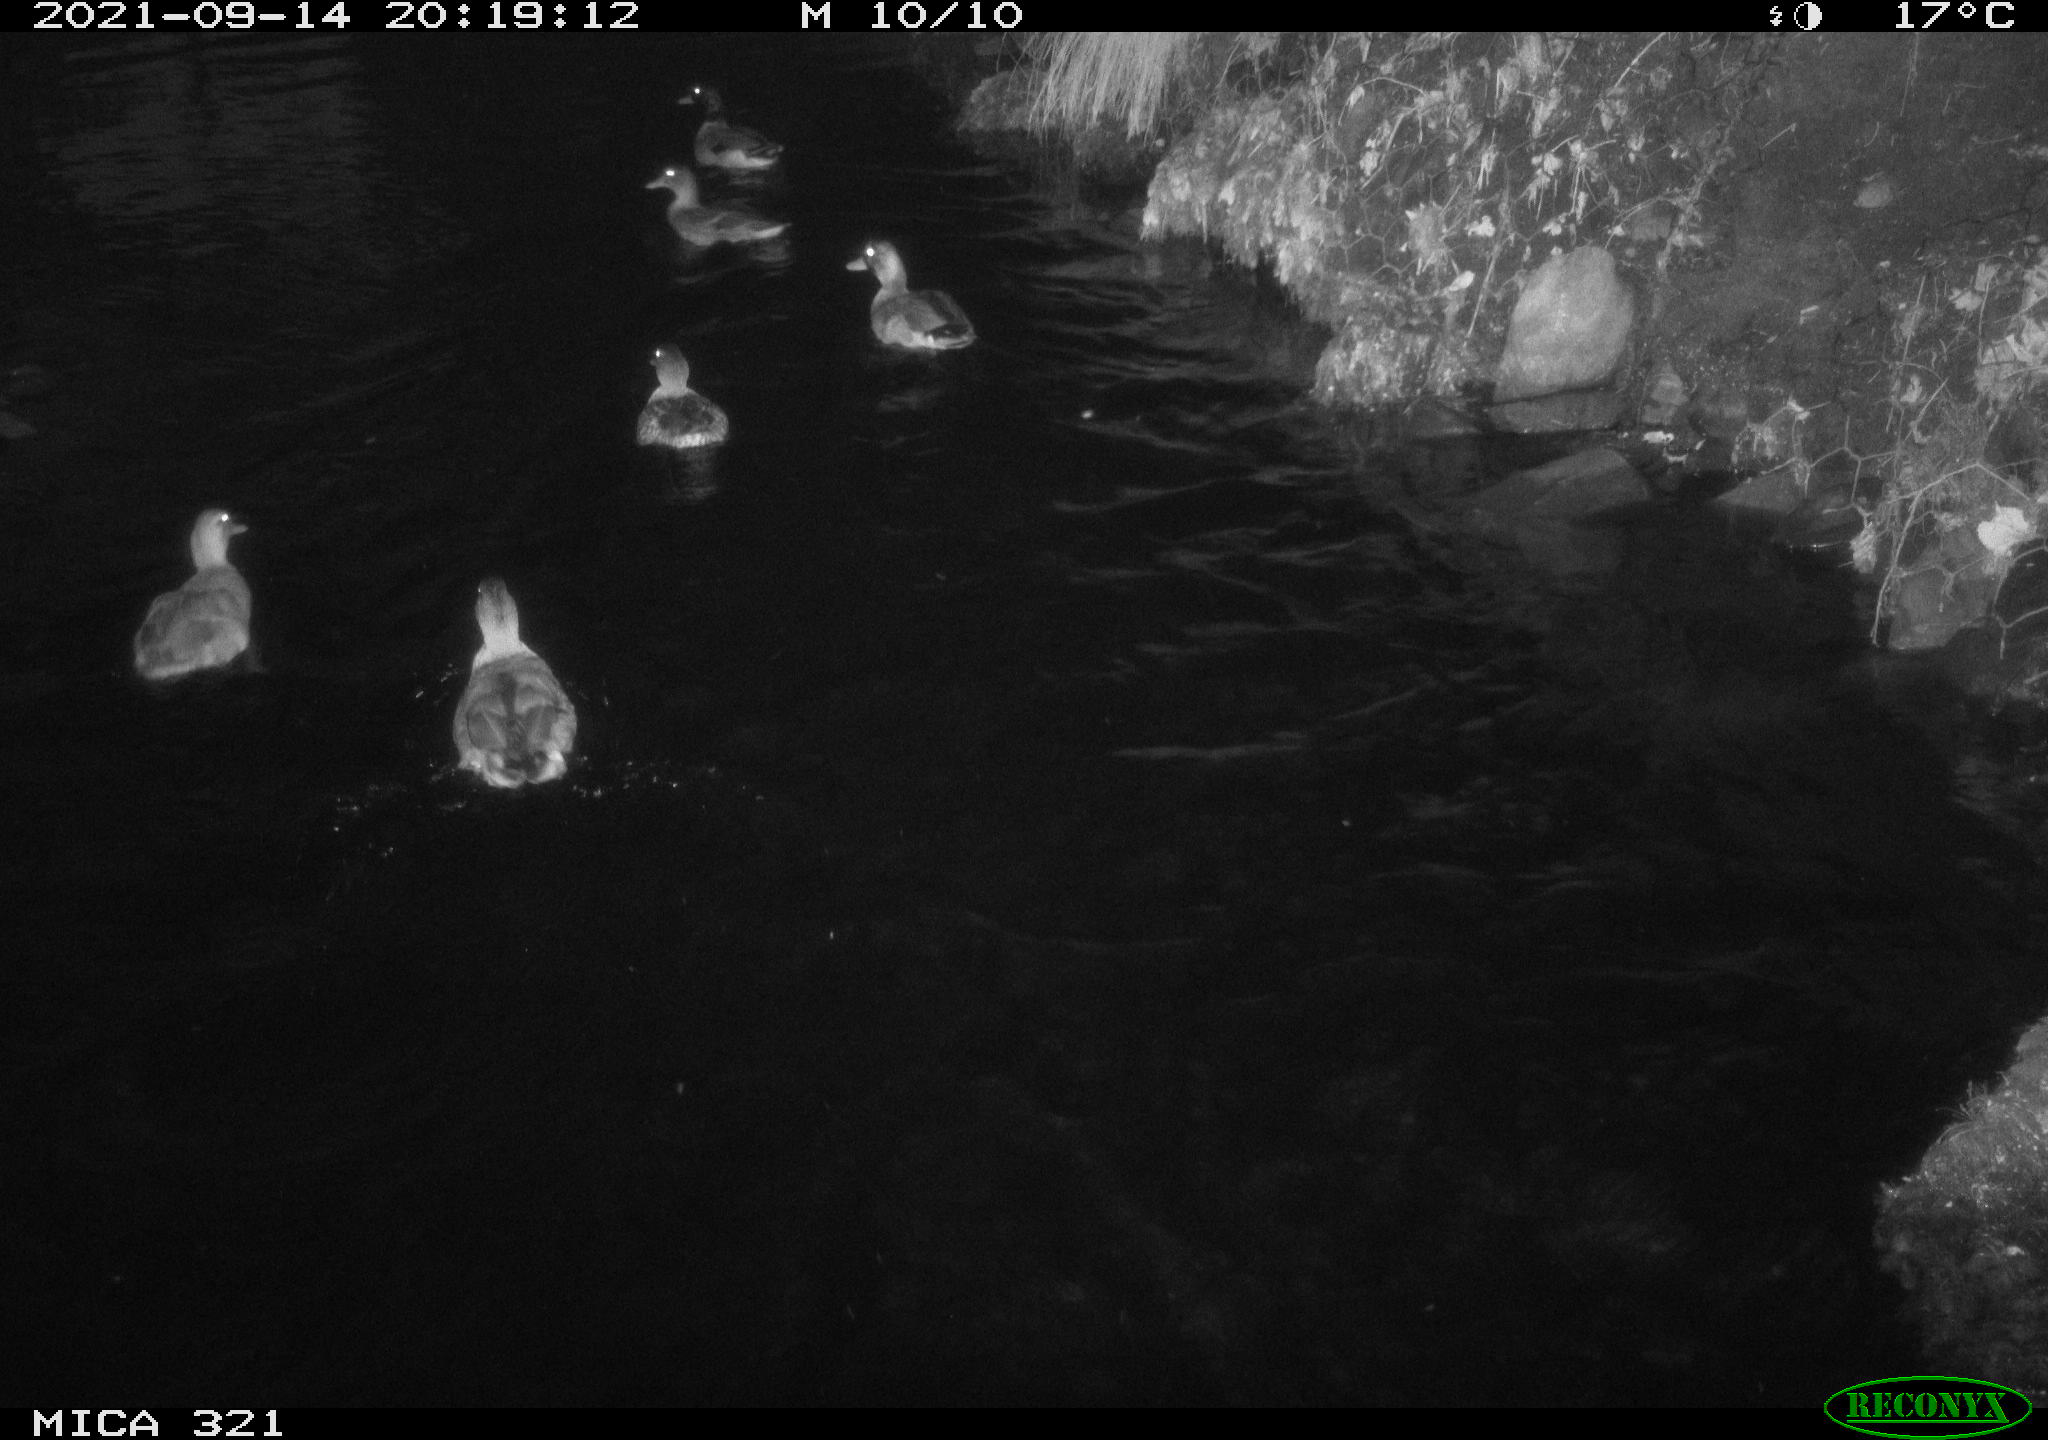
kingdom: Animalia
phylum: Chordata
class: Aves
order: Anseriformes
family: Anatidae
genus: Anas
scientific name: Anas platyrhynchos
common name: Mallard
